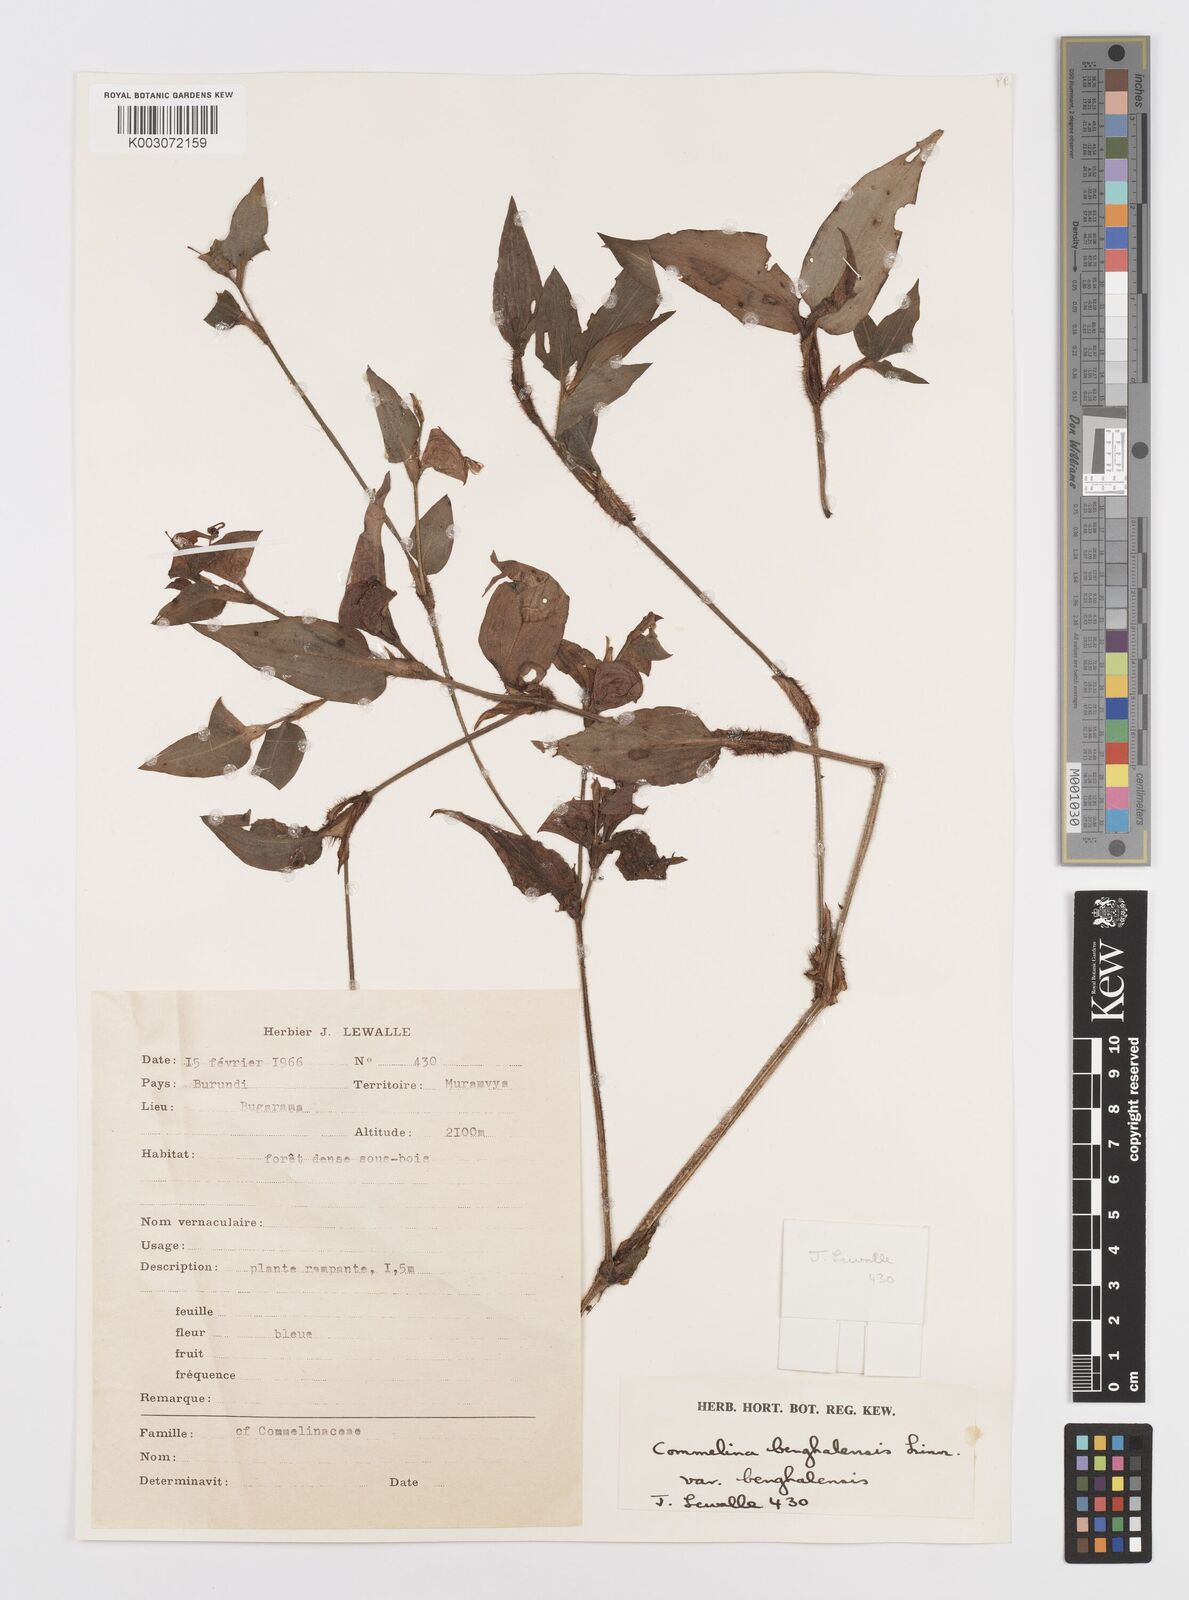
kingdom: Plantae
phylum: Tracheophyta
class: Liliopsida
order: Commelinales
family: Commelinaceae
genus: Commelina
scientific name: Commelina benghalensis
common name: Jio
